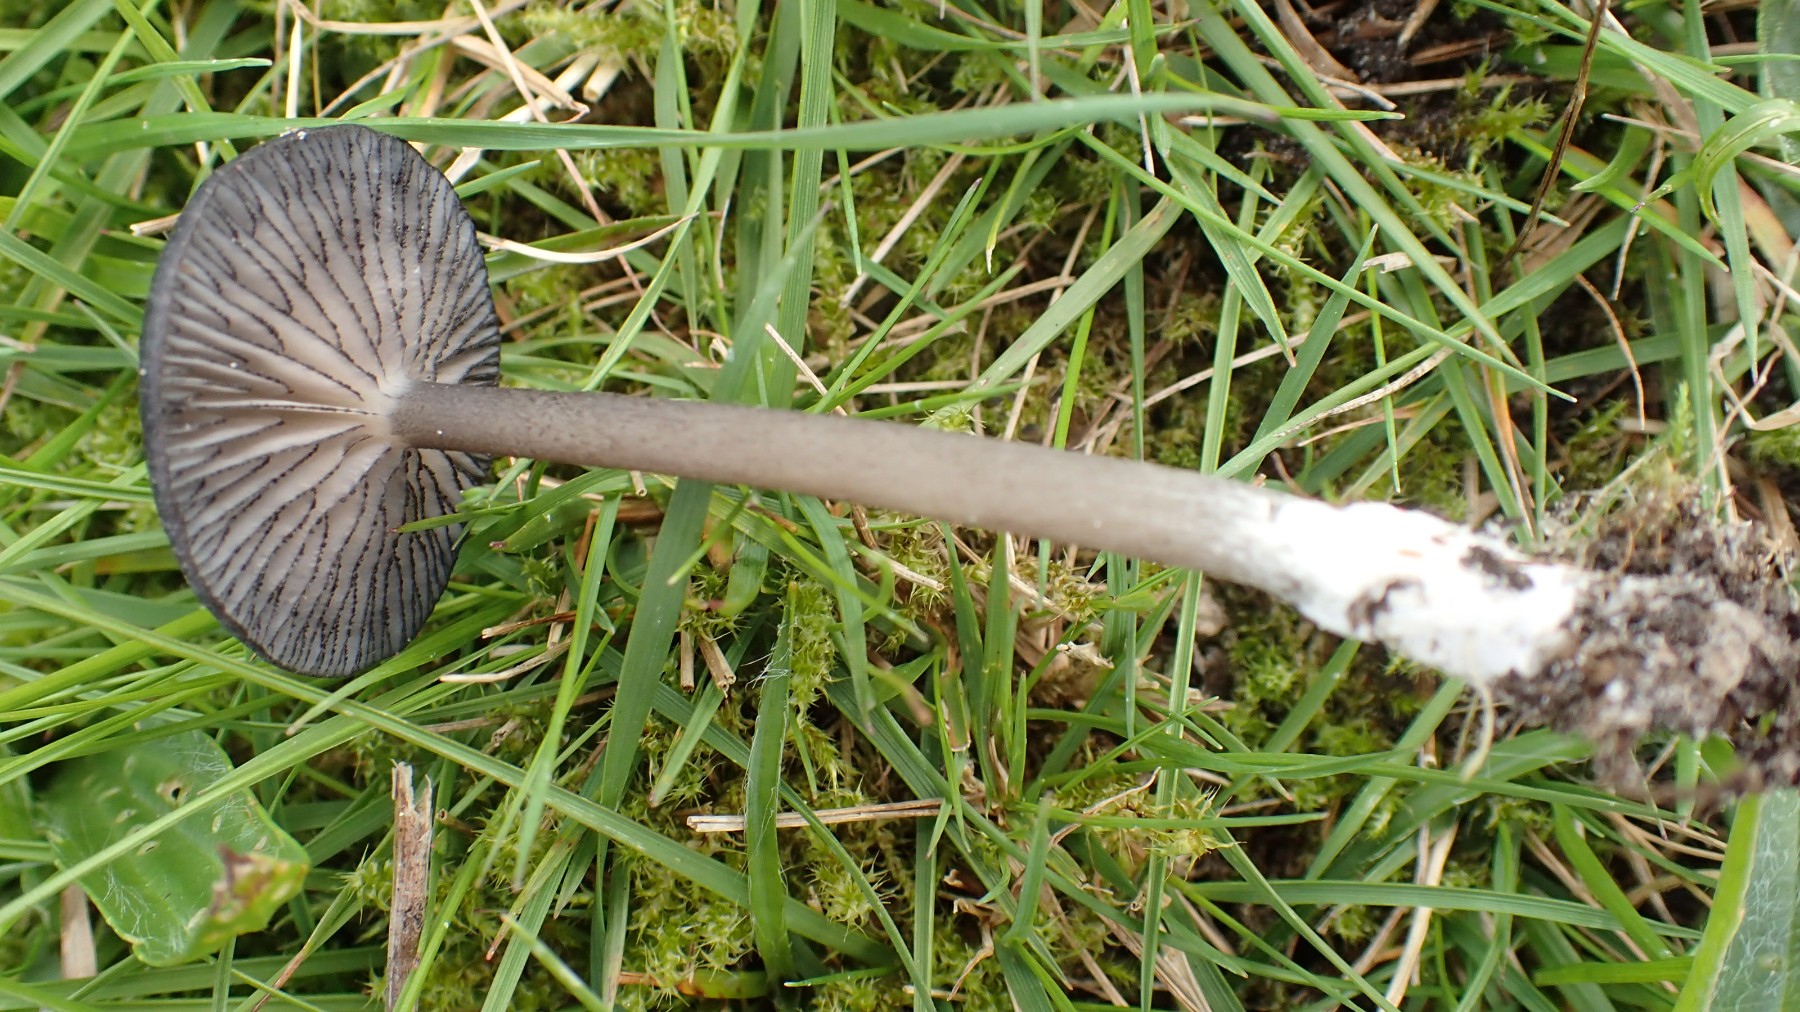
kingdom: Fungi
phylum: Basidiomycota
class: Agaricomycetes
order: Agaricales
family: Entolomataceae
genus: Entoloma
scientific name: Entoloma
